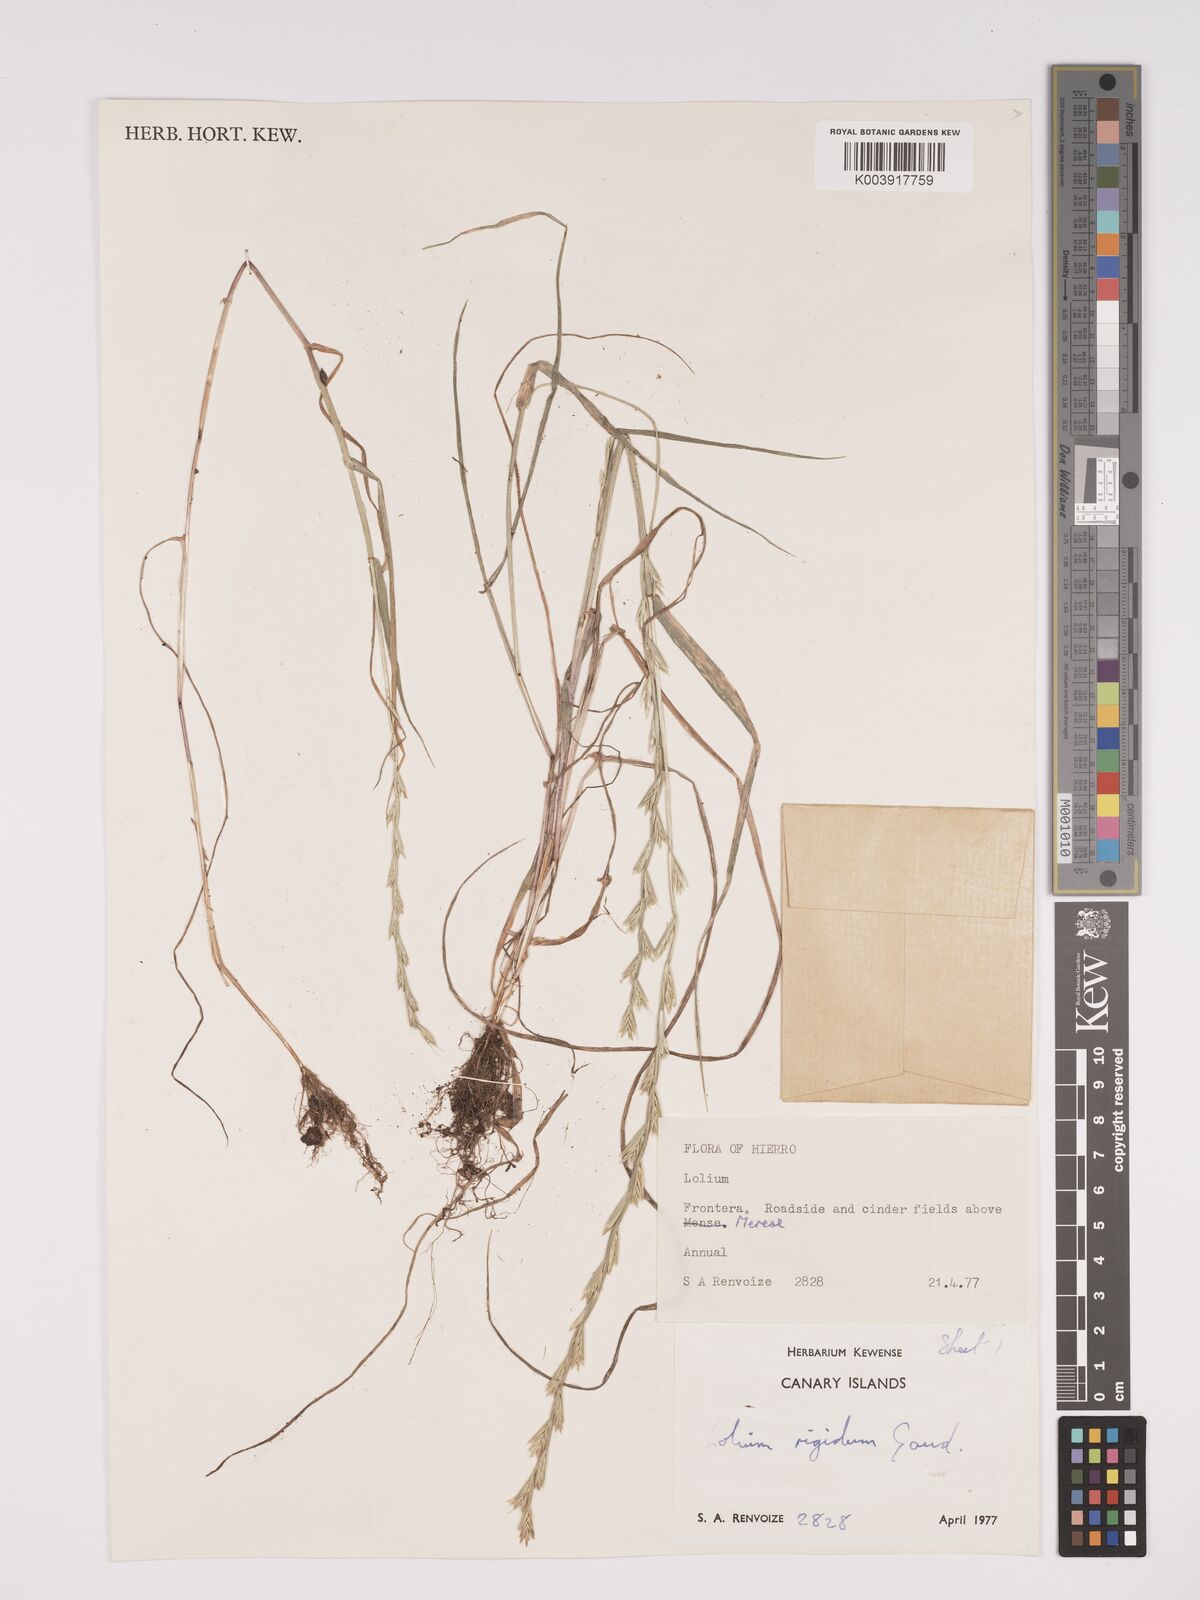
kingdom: Plantae
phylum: Tracheophyta
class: Liliopsida
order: Poales
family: Poaceae
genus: Lolium
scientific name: Lolium rigidum
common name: Wimmera ryegrass
